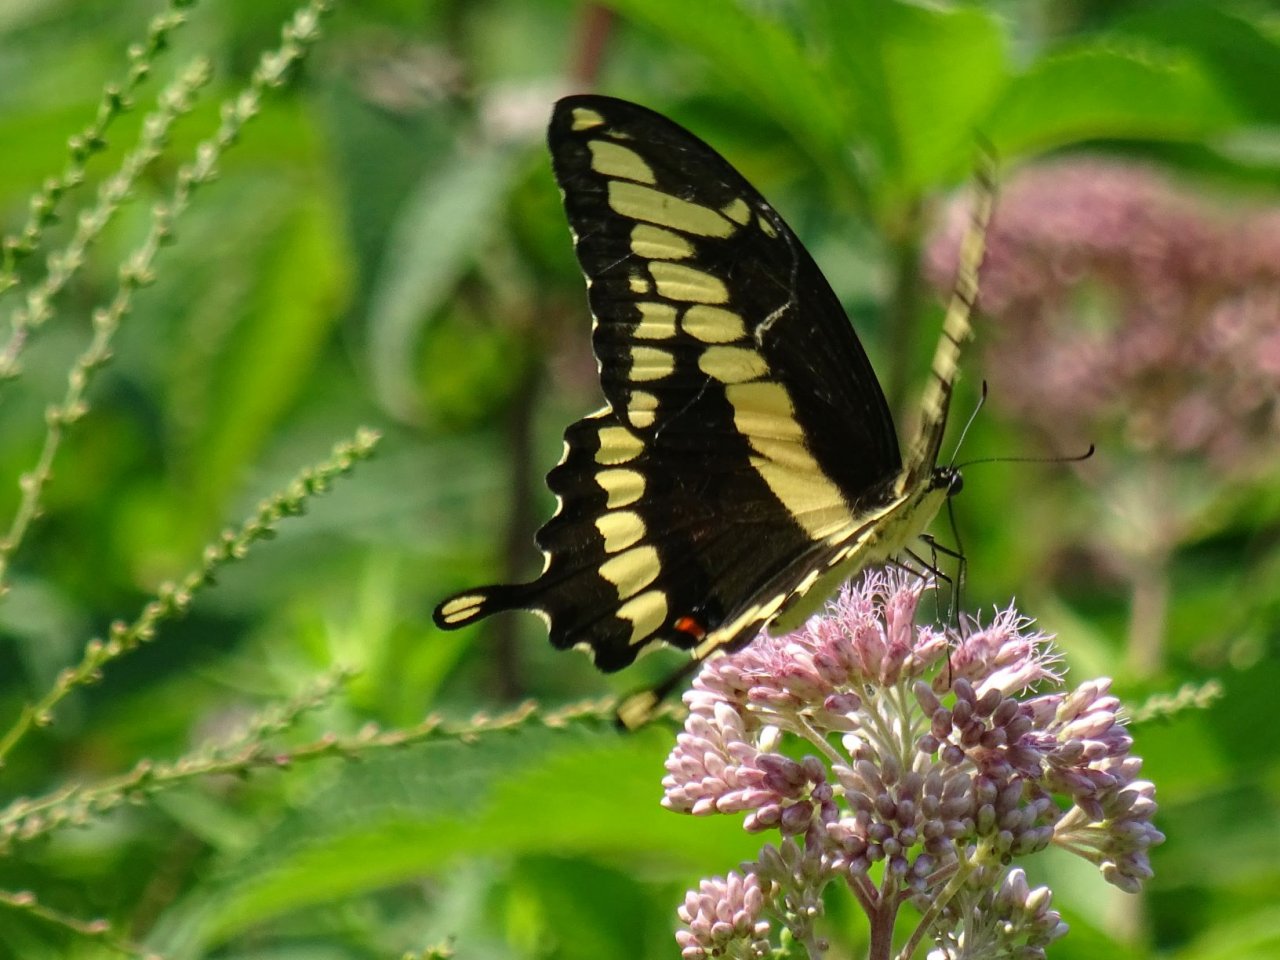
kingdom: Animalia
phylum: Arthropoda
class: Insecta
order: Lepidoptera
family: Papilionidae
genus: Papilio
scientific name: Papilio cresphontes
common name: Eastern Giant Swallowtail
